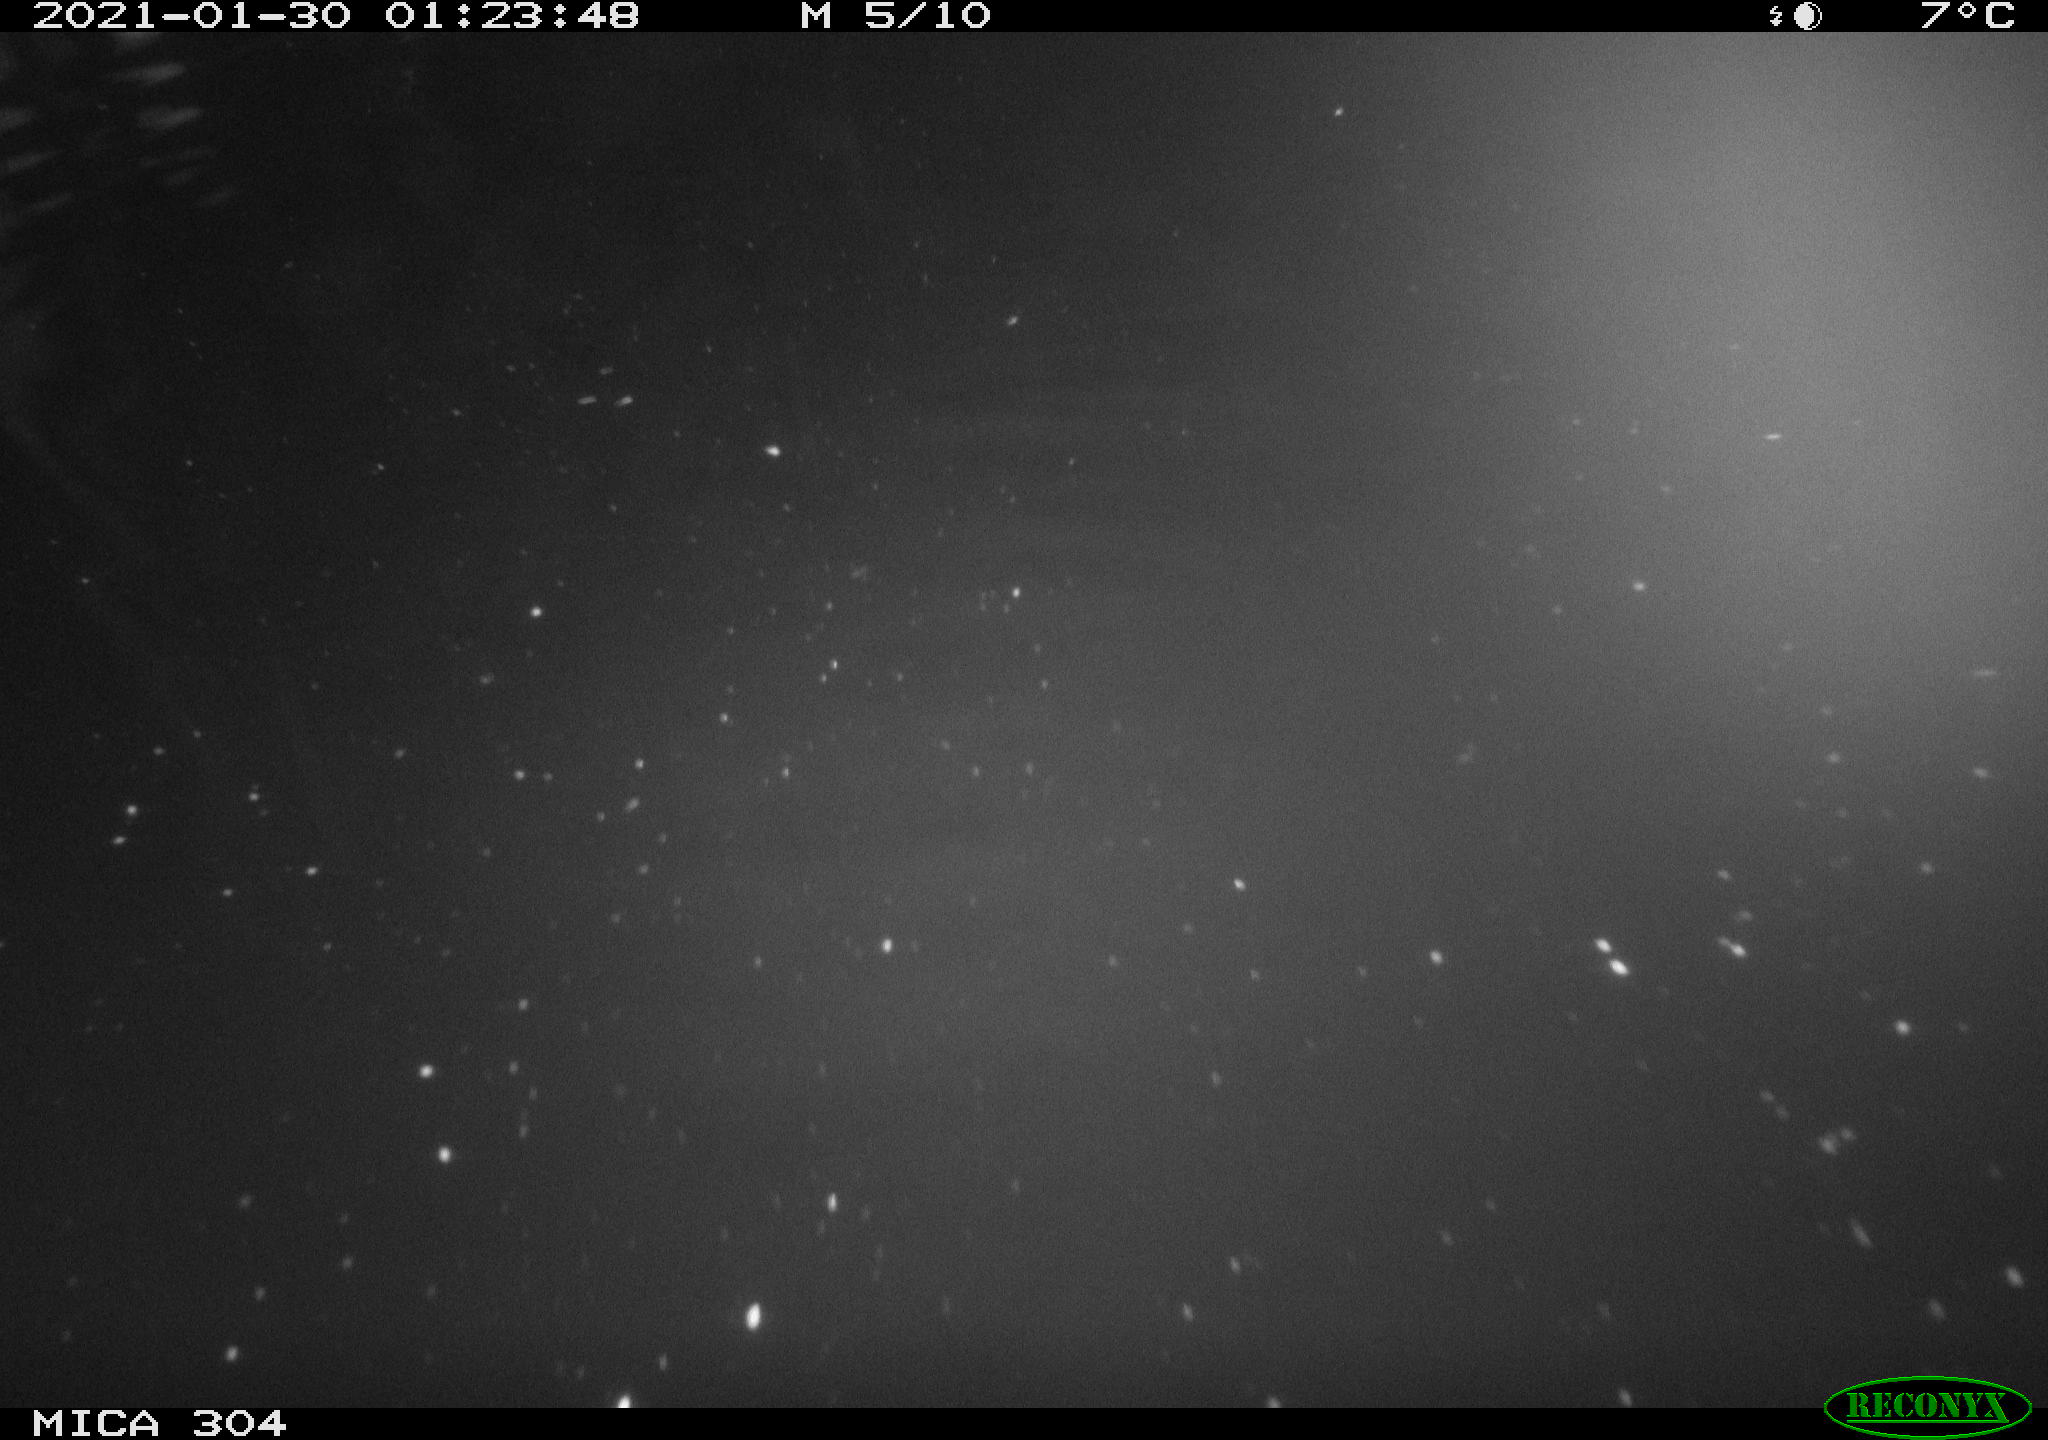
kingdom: Animalia
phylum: Chordata
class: Mammalia
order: Rodentia
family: Cricetidae
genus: Ondatra
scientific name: Ondatra zibethicus
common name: Muskrat
